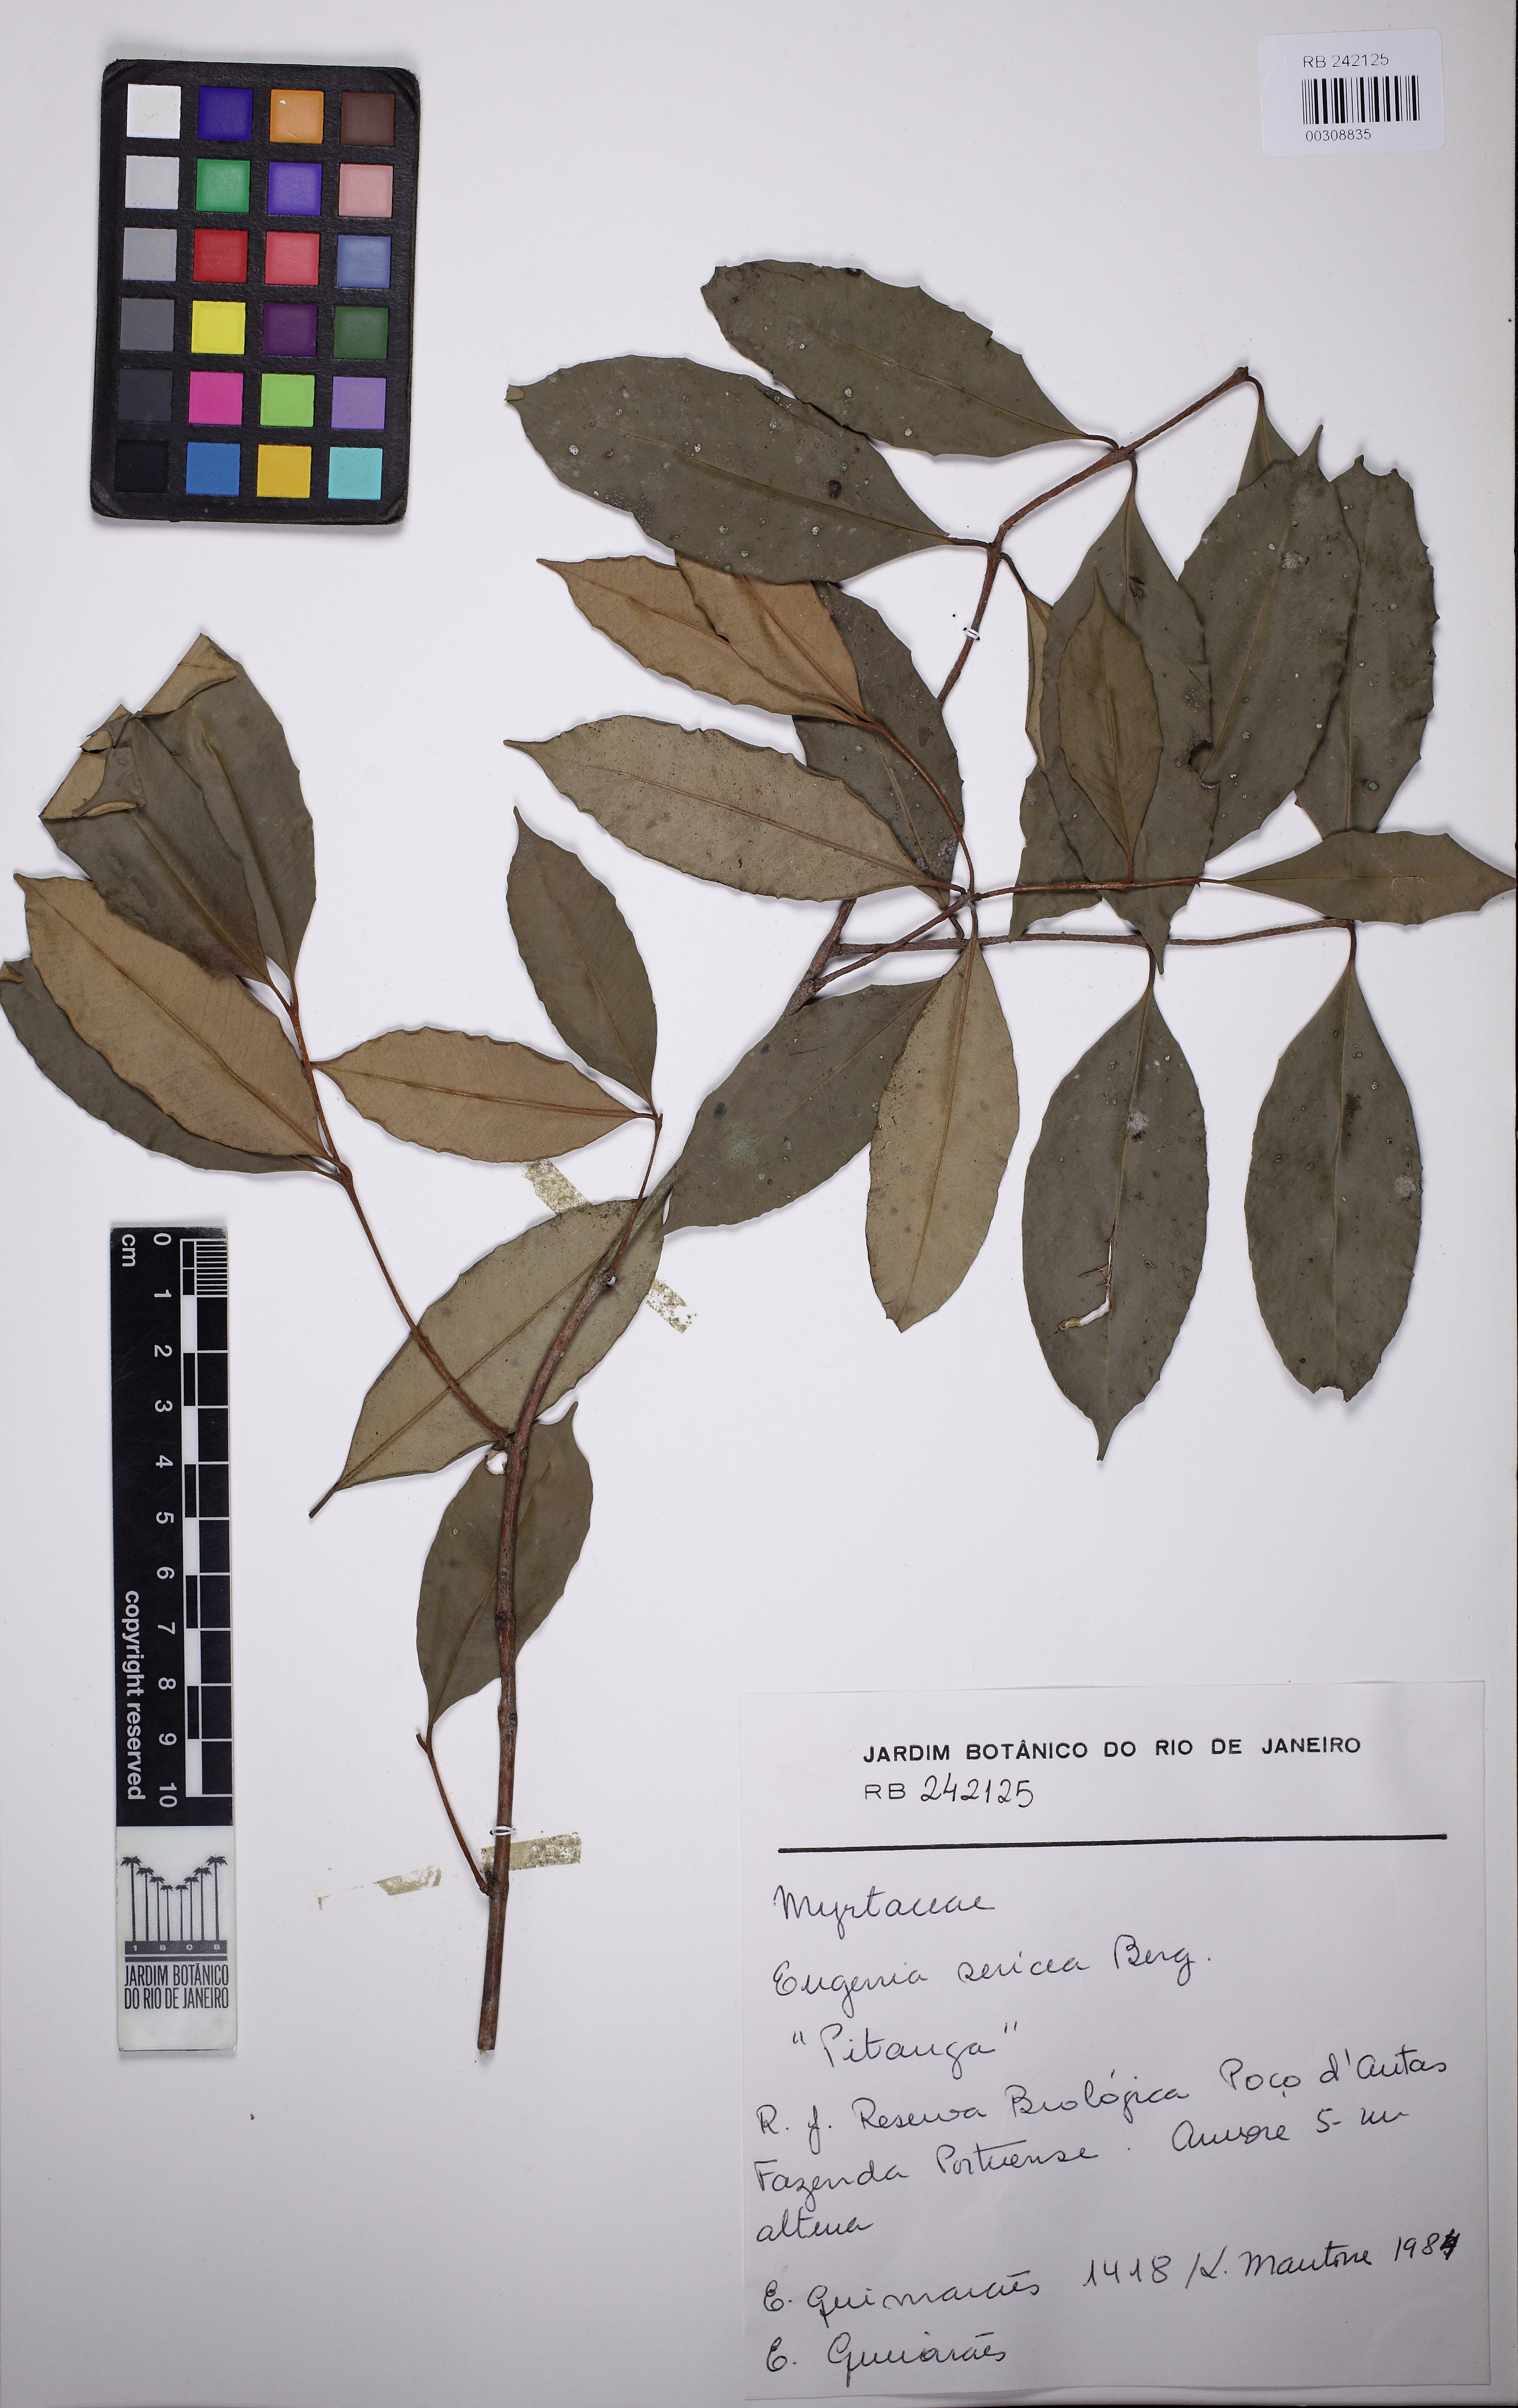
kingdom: Plantae
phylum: Tracheophyta
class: Magnoliopsida
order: Myrtales
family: Myrtaceae
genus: Eugenia
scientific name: Eugenia pisiformis
